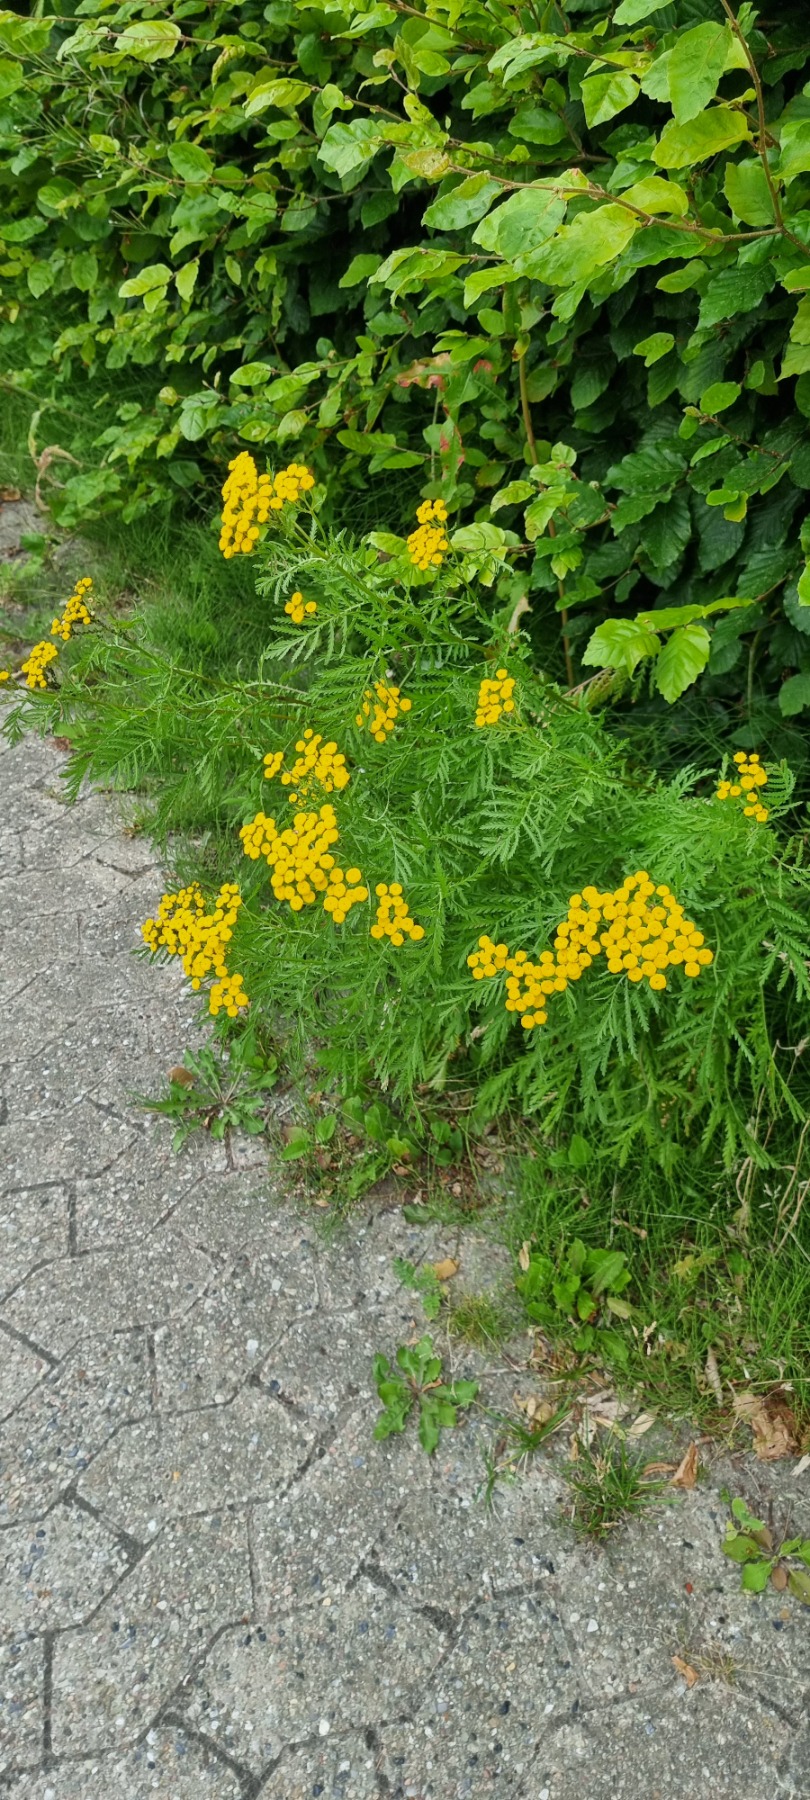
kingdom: Plantae
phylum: Tracheophyta
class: Magnoliopsida
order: Asterales
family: Asteraceae
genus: Tanacetum
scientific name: Tanacetum vulgare
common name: Rejnfan
